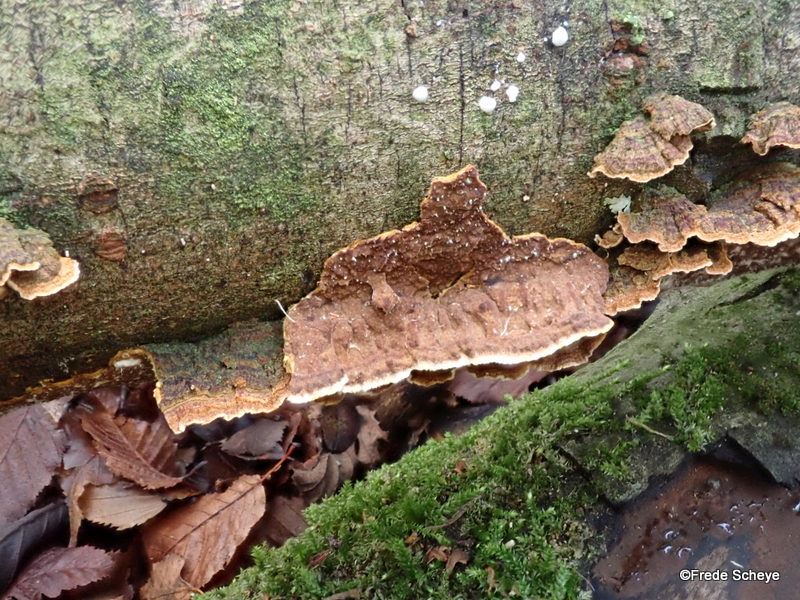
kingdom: Fungi
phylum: Basidiomycota
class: Agaricomycetes
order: Hymenochaetales
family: Hymenochaetaceae
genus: Hydnoporia
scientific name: Hydnoporia tabacina
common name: tobaksbrun ruslædersvamp
